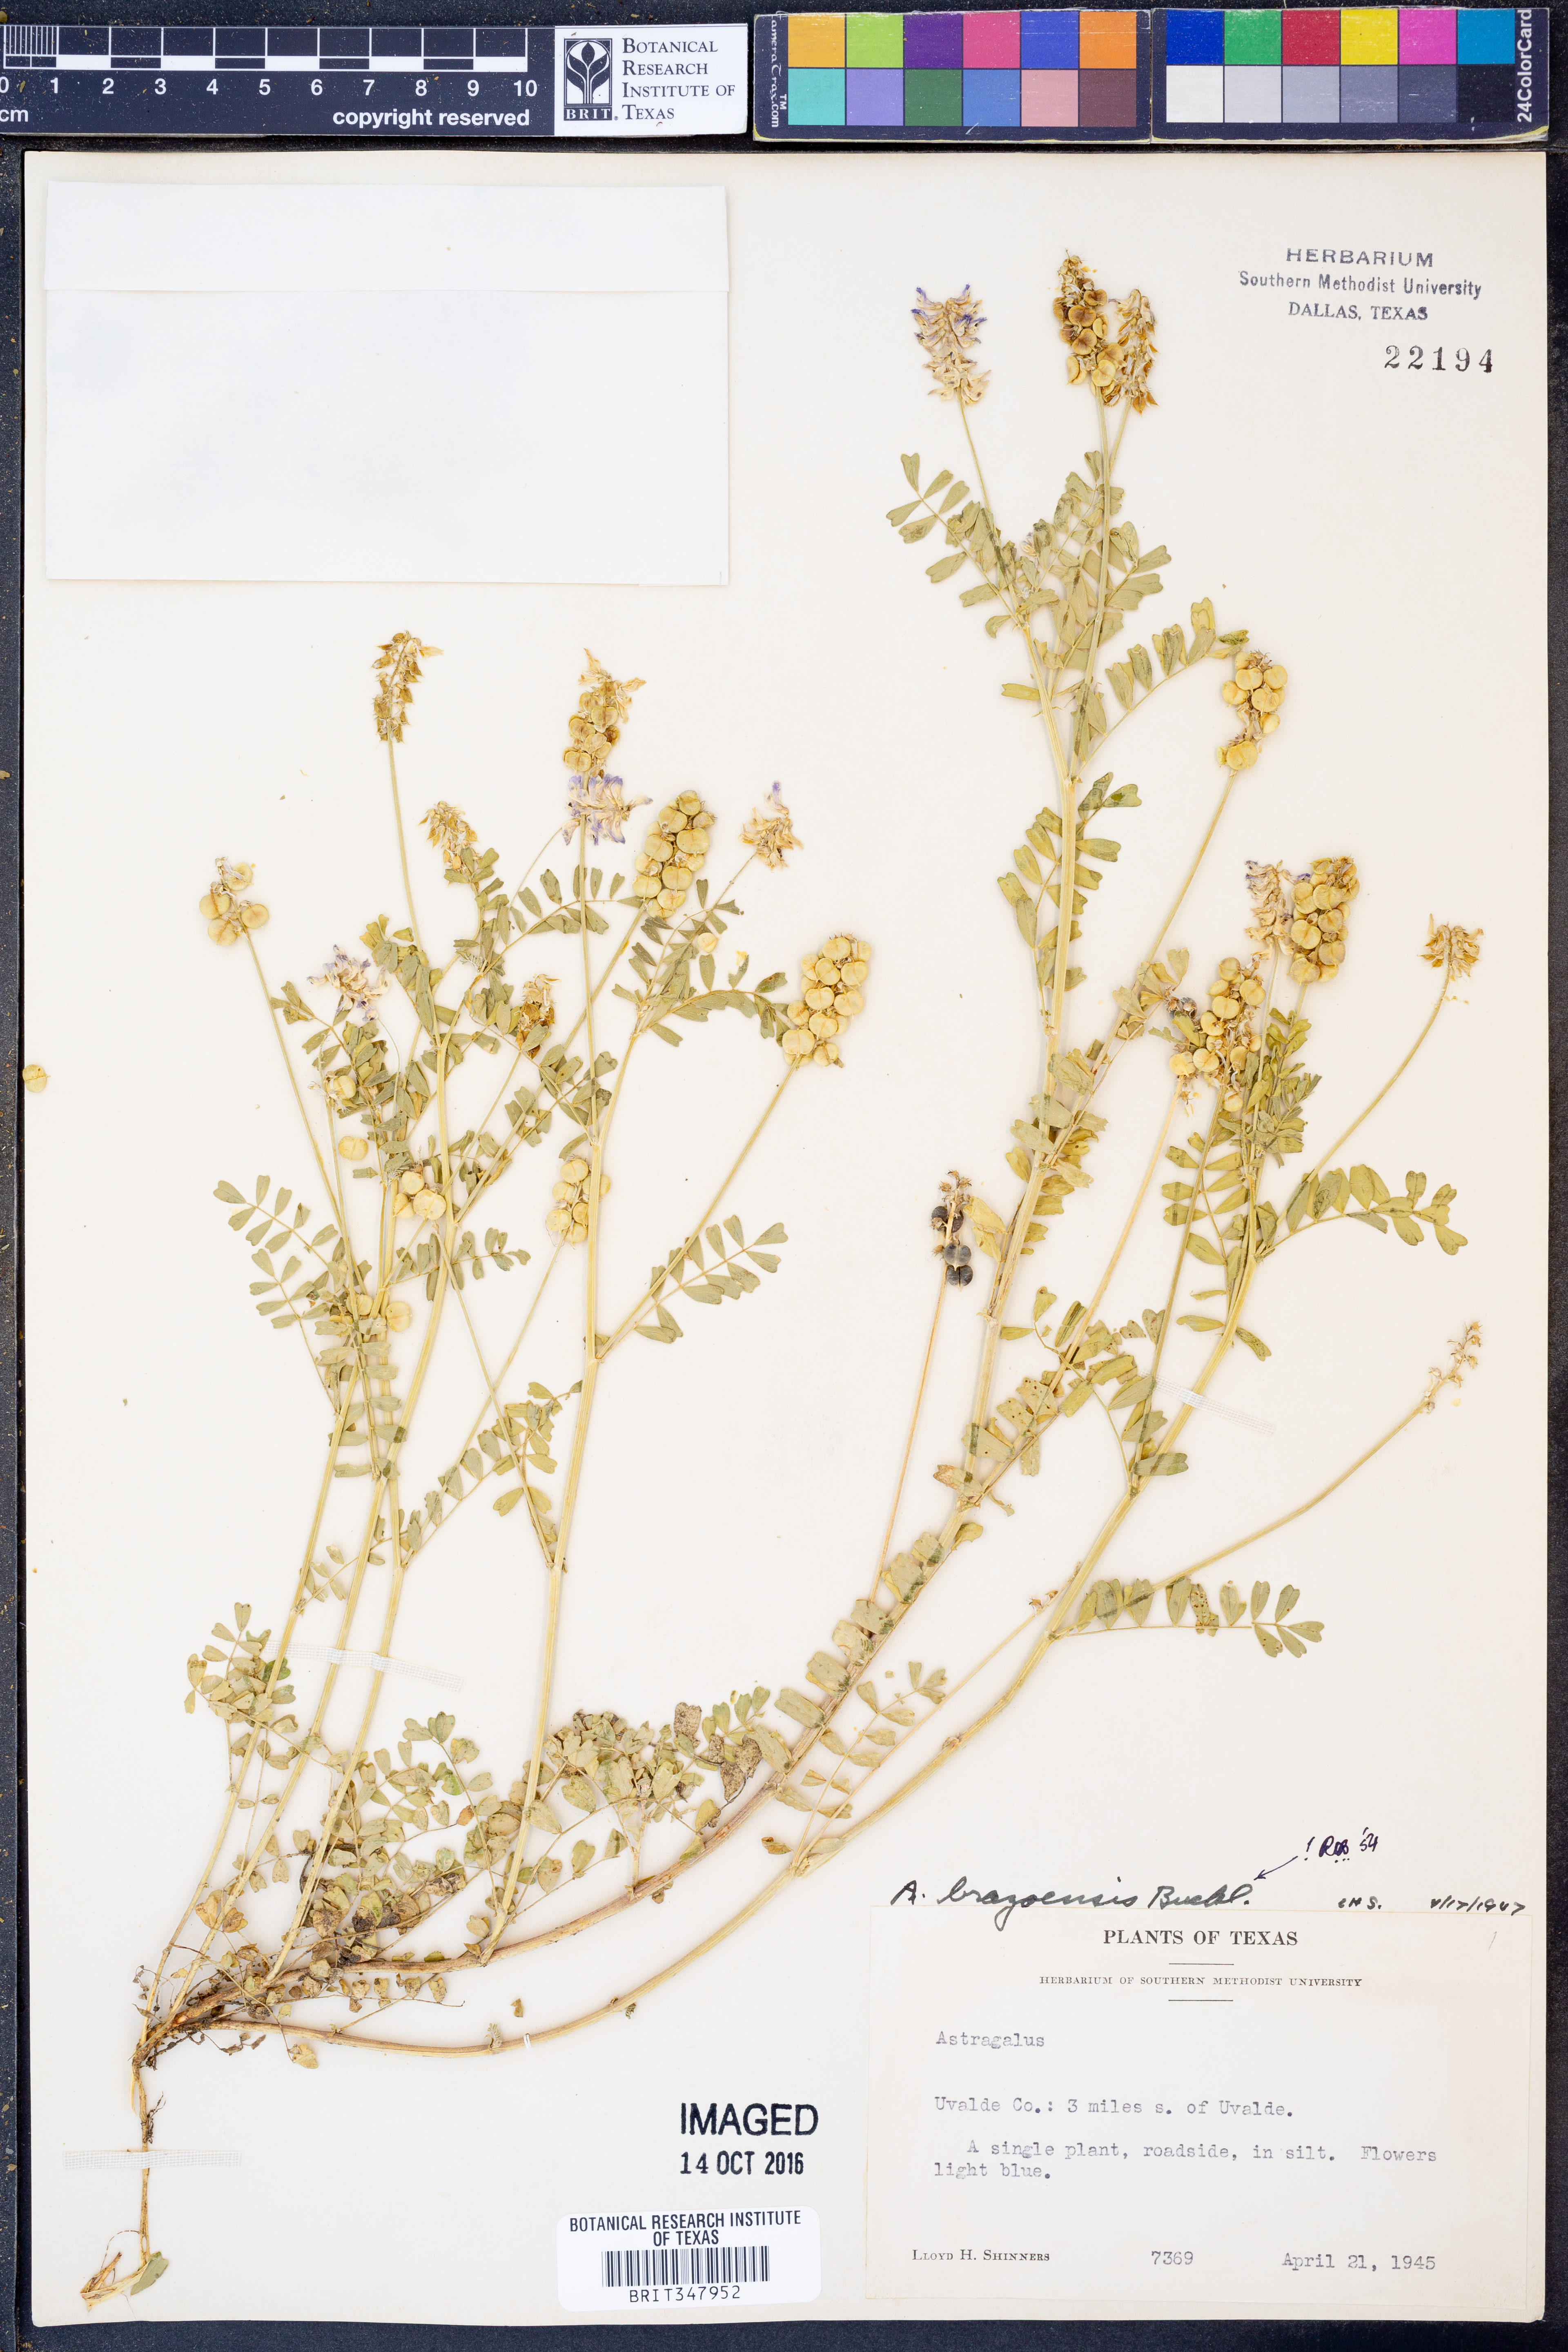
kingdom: Plantae
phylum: Tracheophyta
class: Magnoliopsida
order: Fabales
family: Fabaceae
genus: Astragalus
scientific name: Astragalus brazoensis
